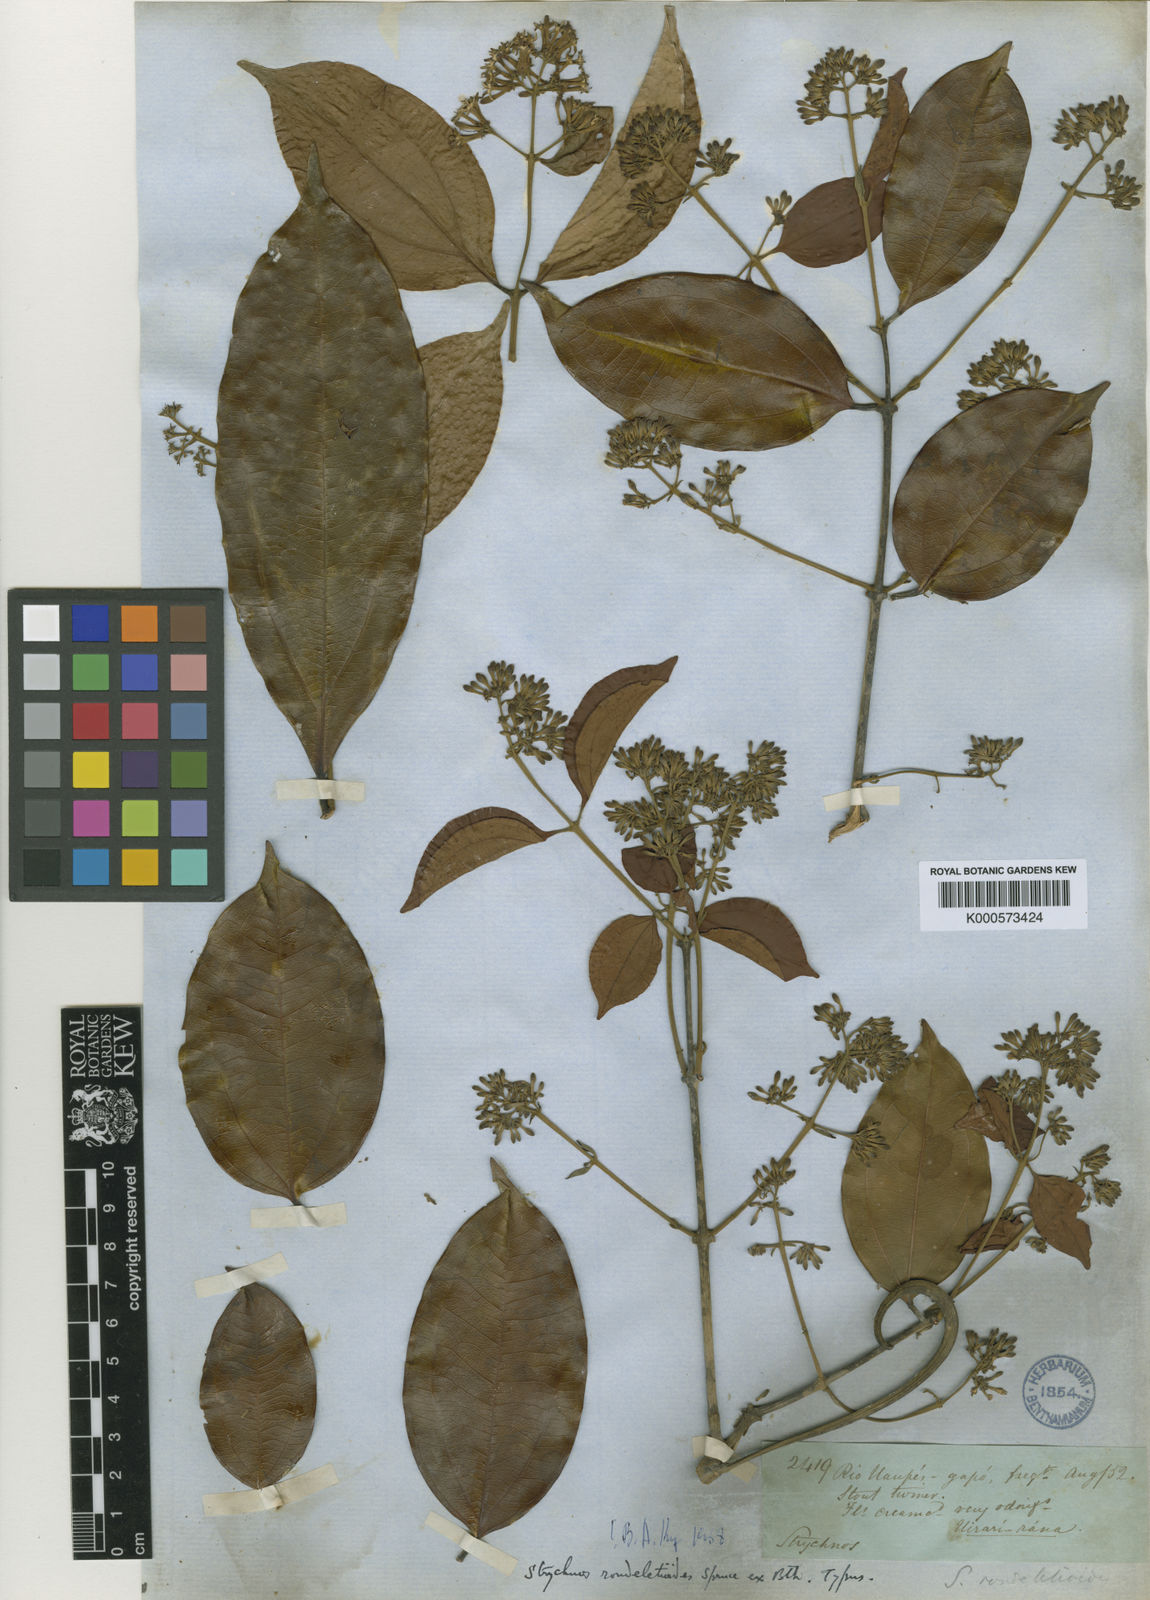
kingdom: Plantae
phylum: Tracheophyta
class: Magnoliopsida
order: Gentianales
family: Loganiaceae
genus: Strychnos
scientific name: Strychnos rondeletioides
